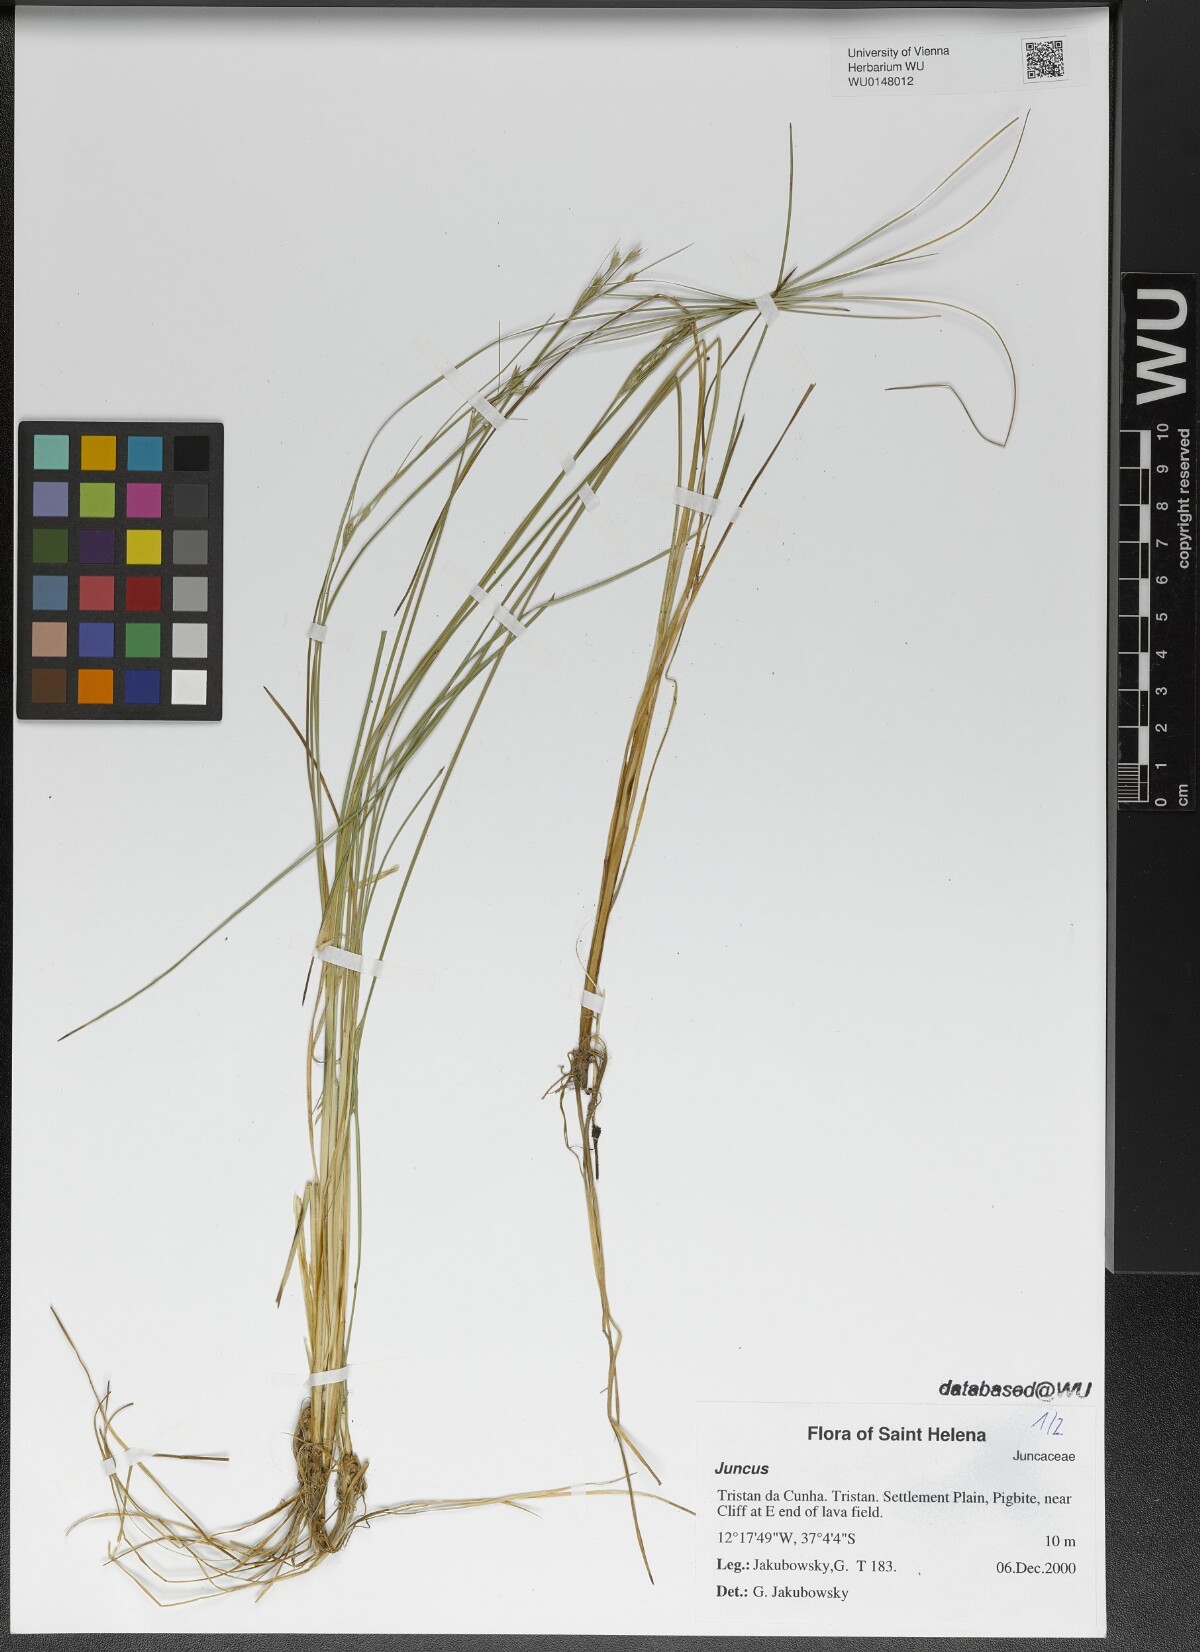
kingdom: Plantae
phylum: Tracheophyta
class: Liliopsida
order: Poales
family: Juncaceae
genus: Juncus
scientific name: Juncus
